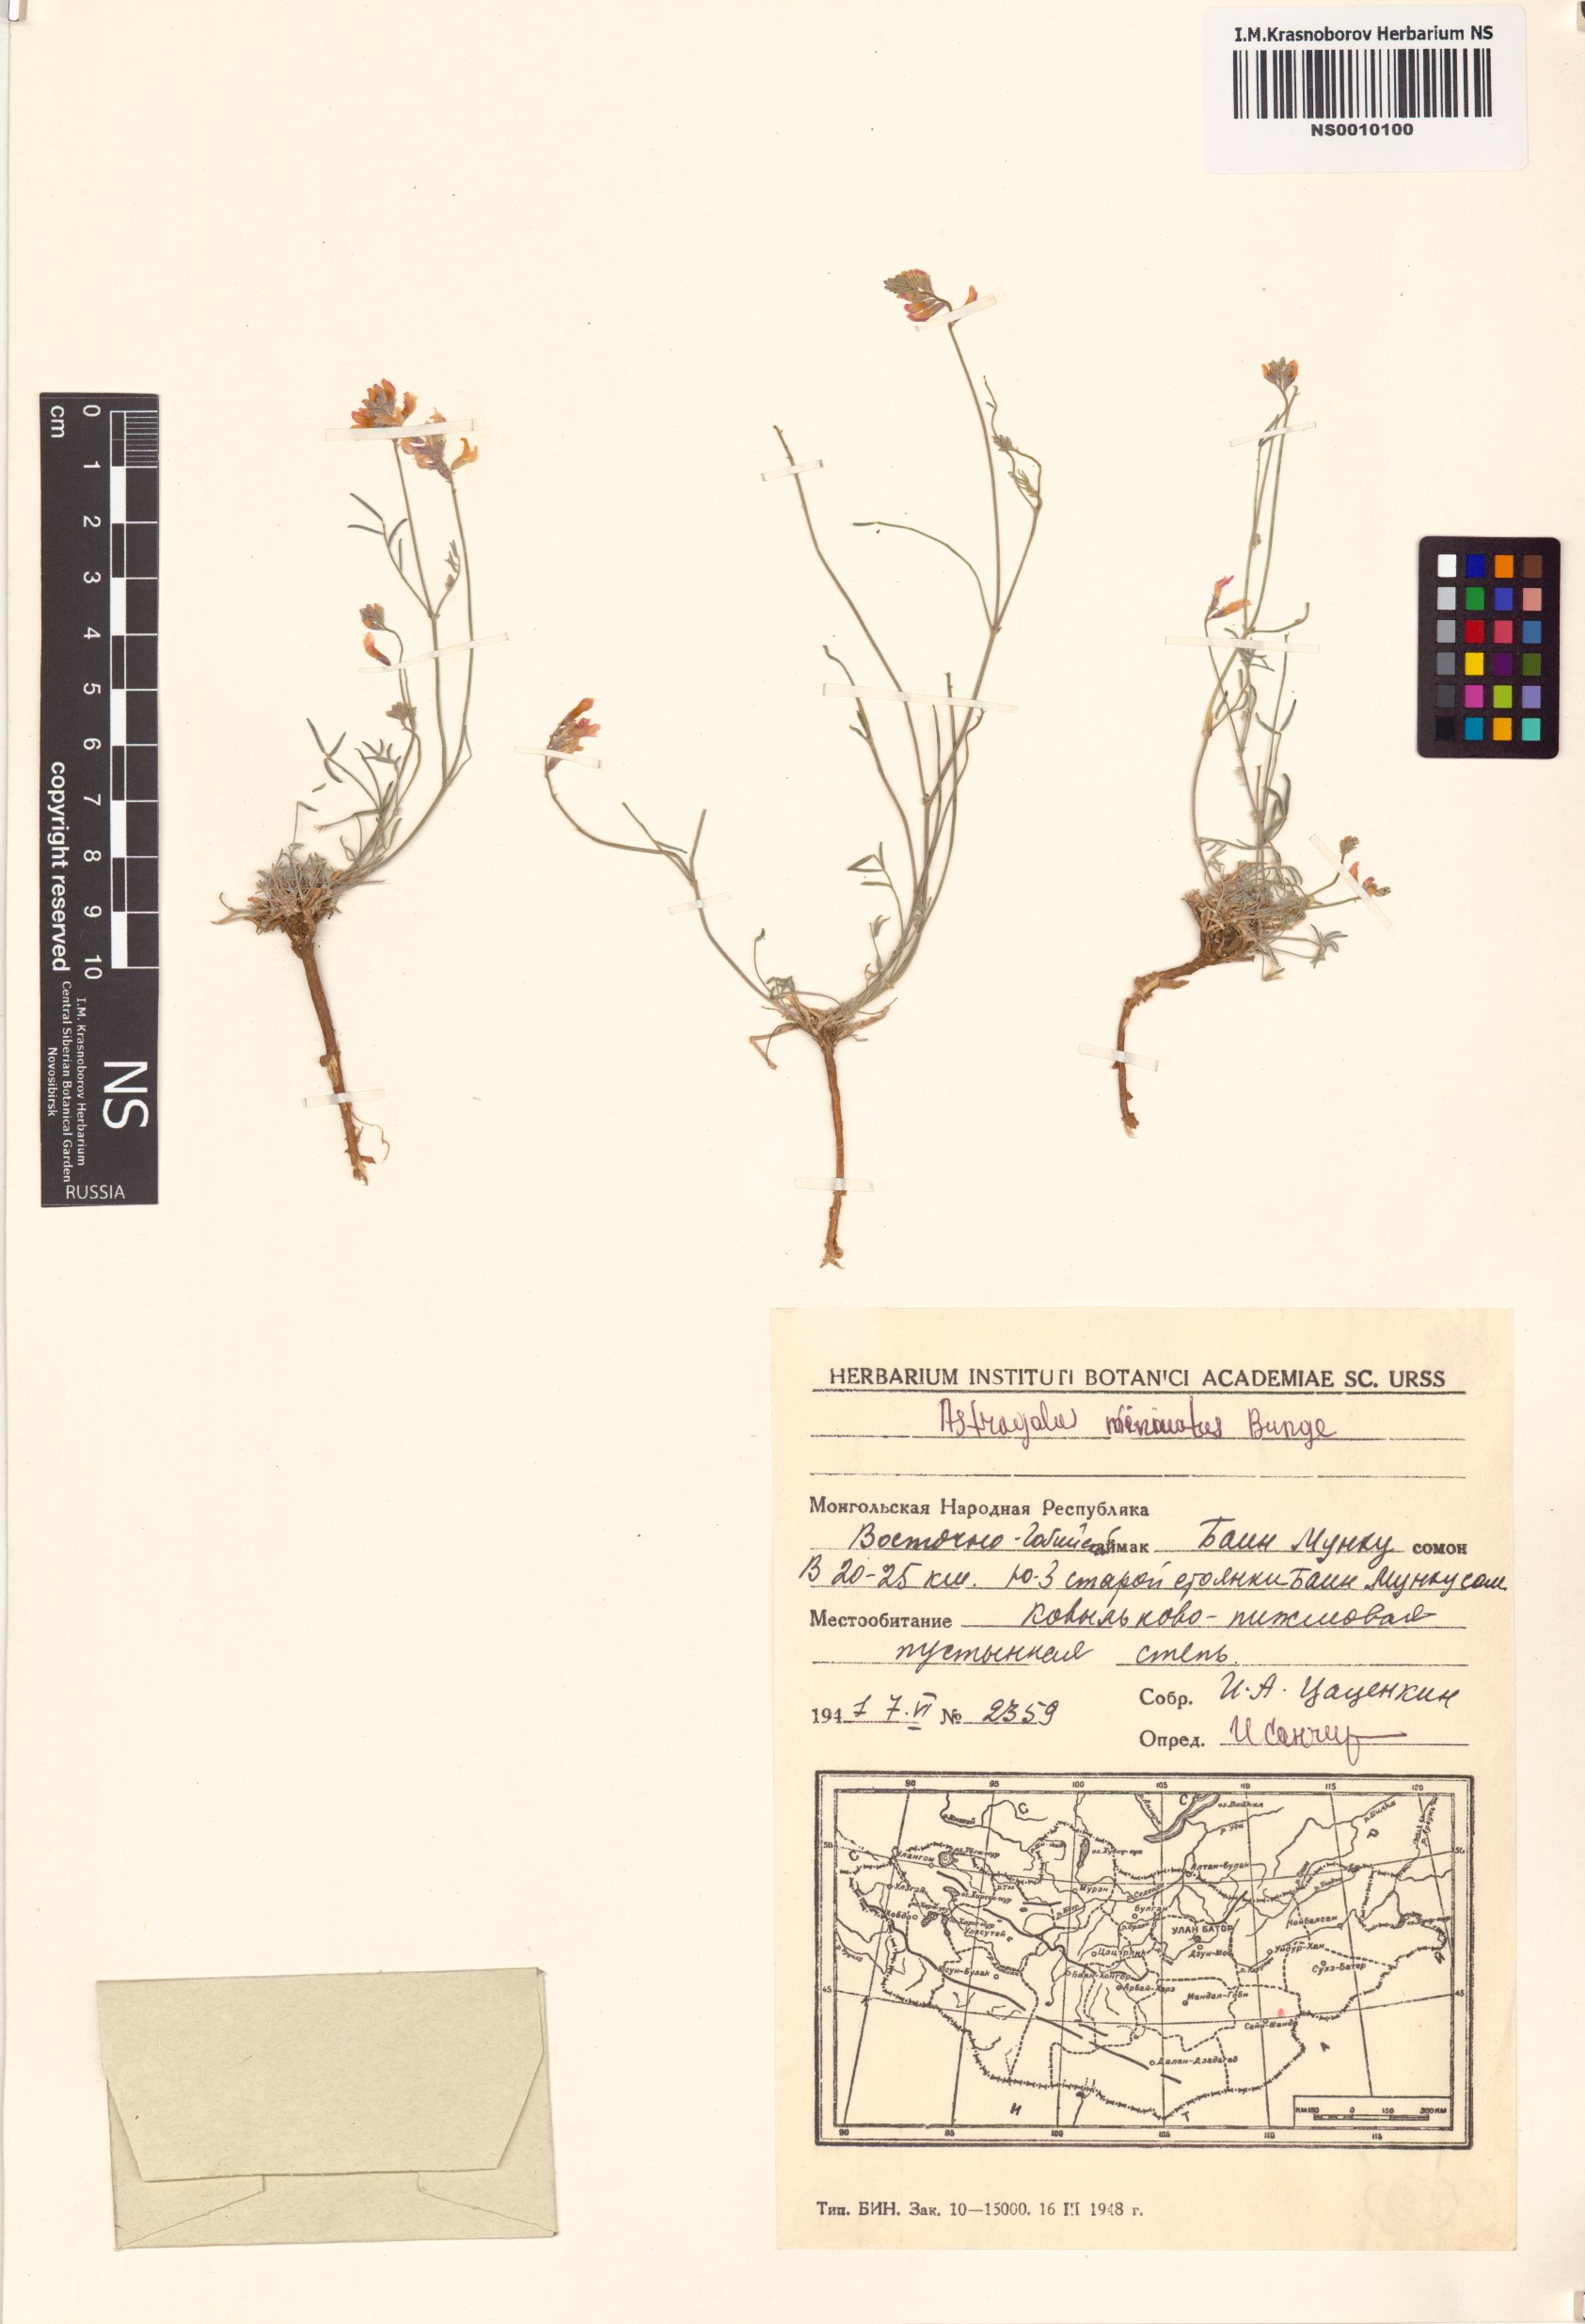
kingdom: Plantae
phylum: Tracheophyta
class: Magnoliopsida
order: Fabales
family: Fabaceae
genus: Astragalus
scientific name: Astragalus miniatus
